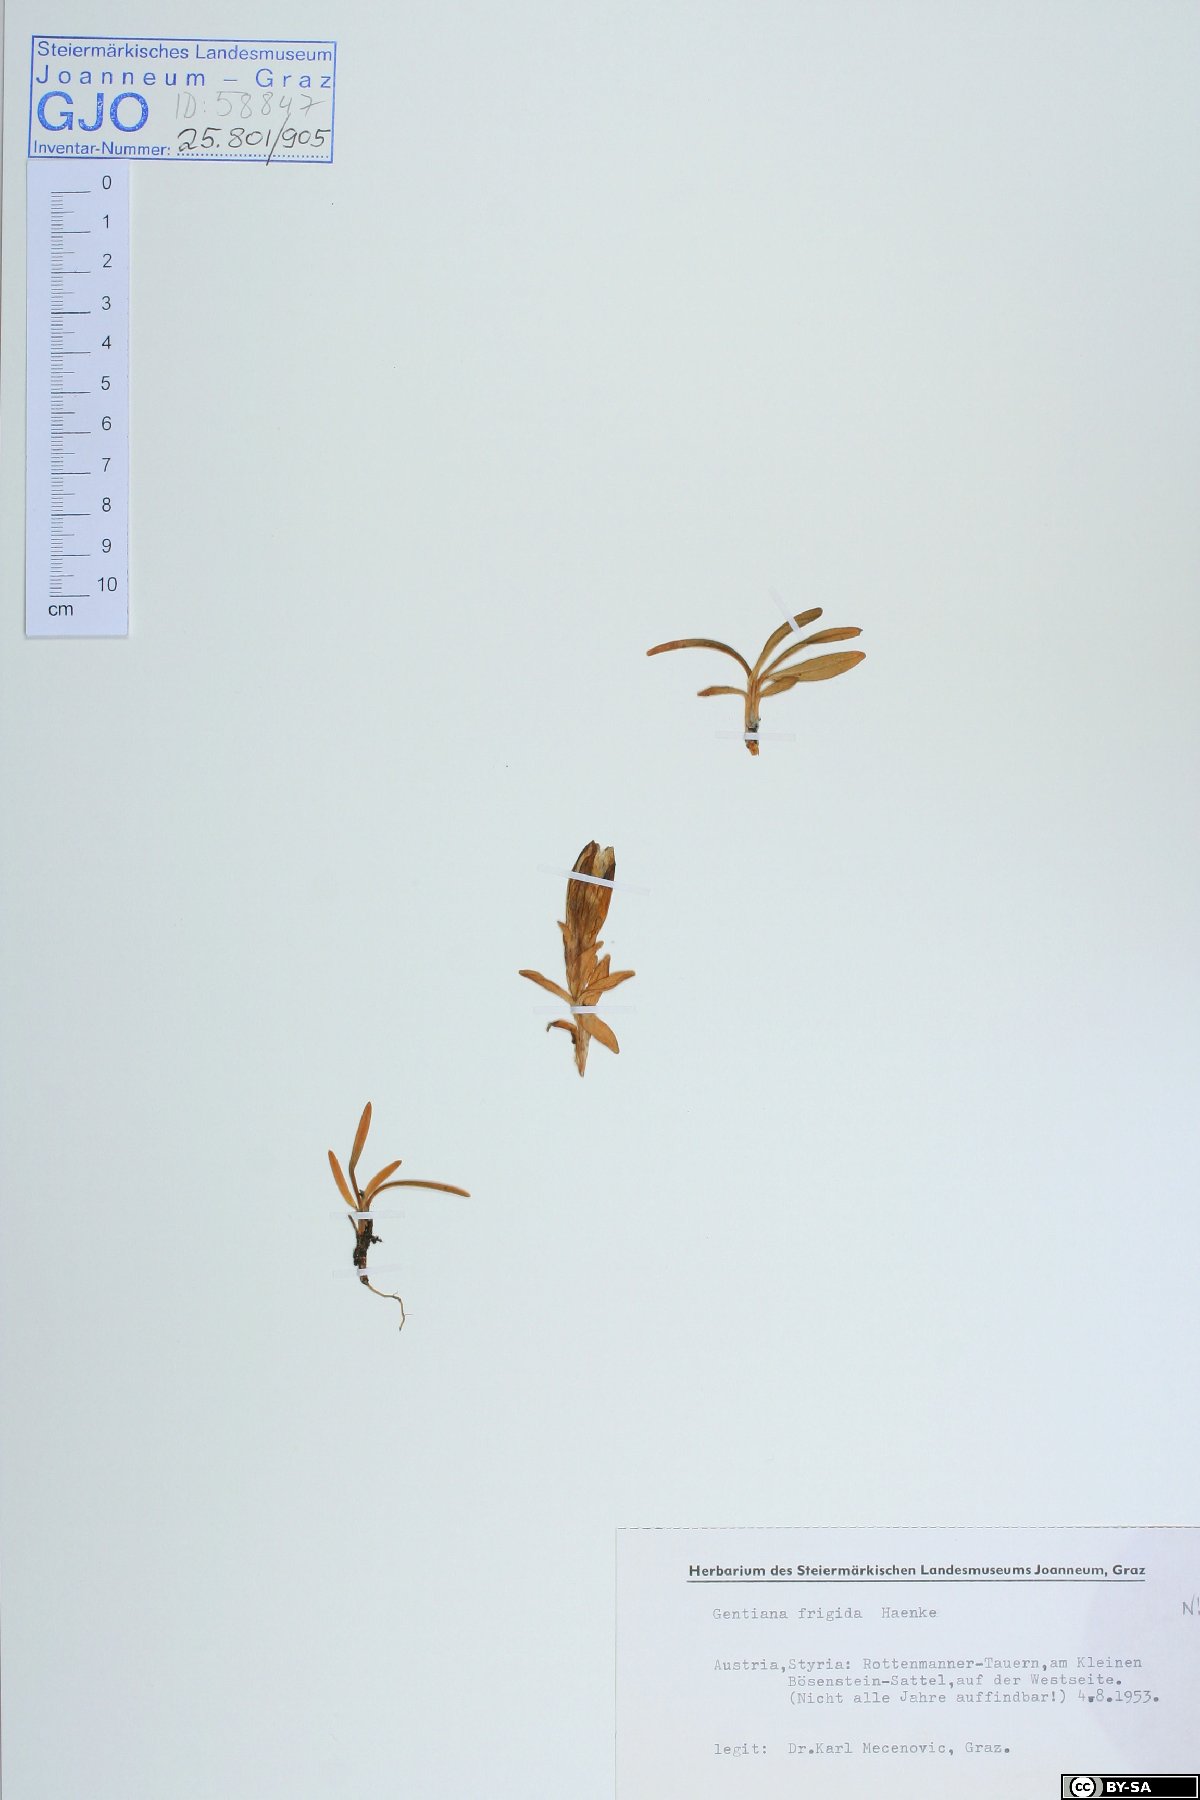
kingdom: Plantae
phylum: Tracheophyta
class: Magnoliopsida
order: Gentianales
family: Gentianaceae
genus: Gentiana
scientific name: Gentiana frigida
